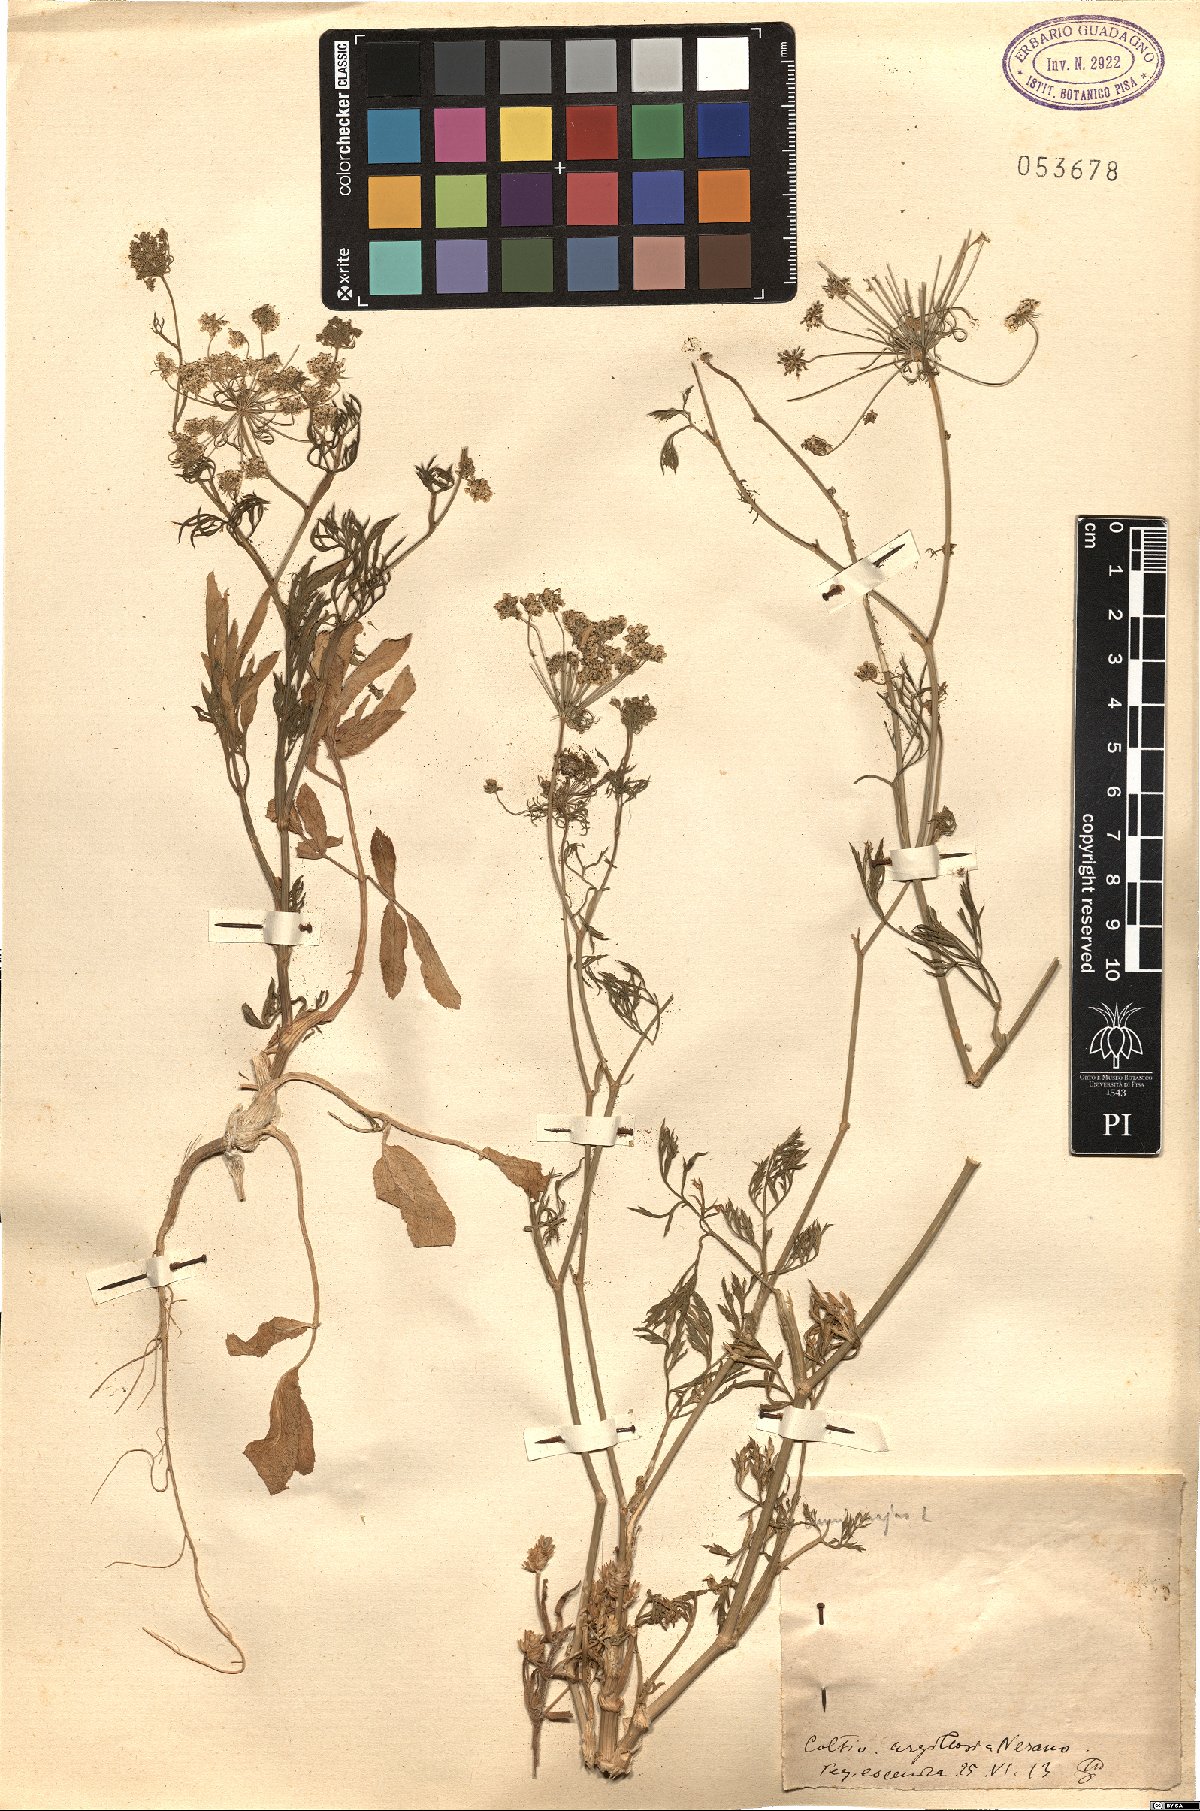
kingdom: Plantae
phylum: Tracheophyta
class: Magnoliopsida
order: Apiales
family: Apiaceae
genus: Ammi
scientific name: Ammi majus
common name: Bullwort
